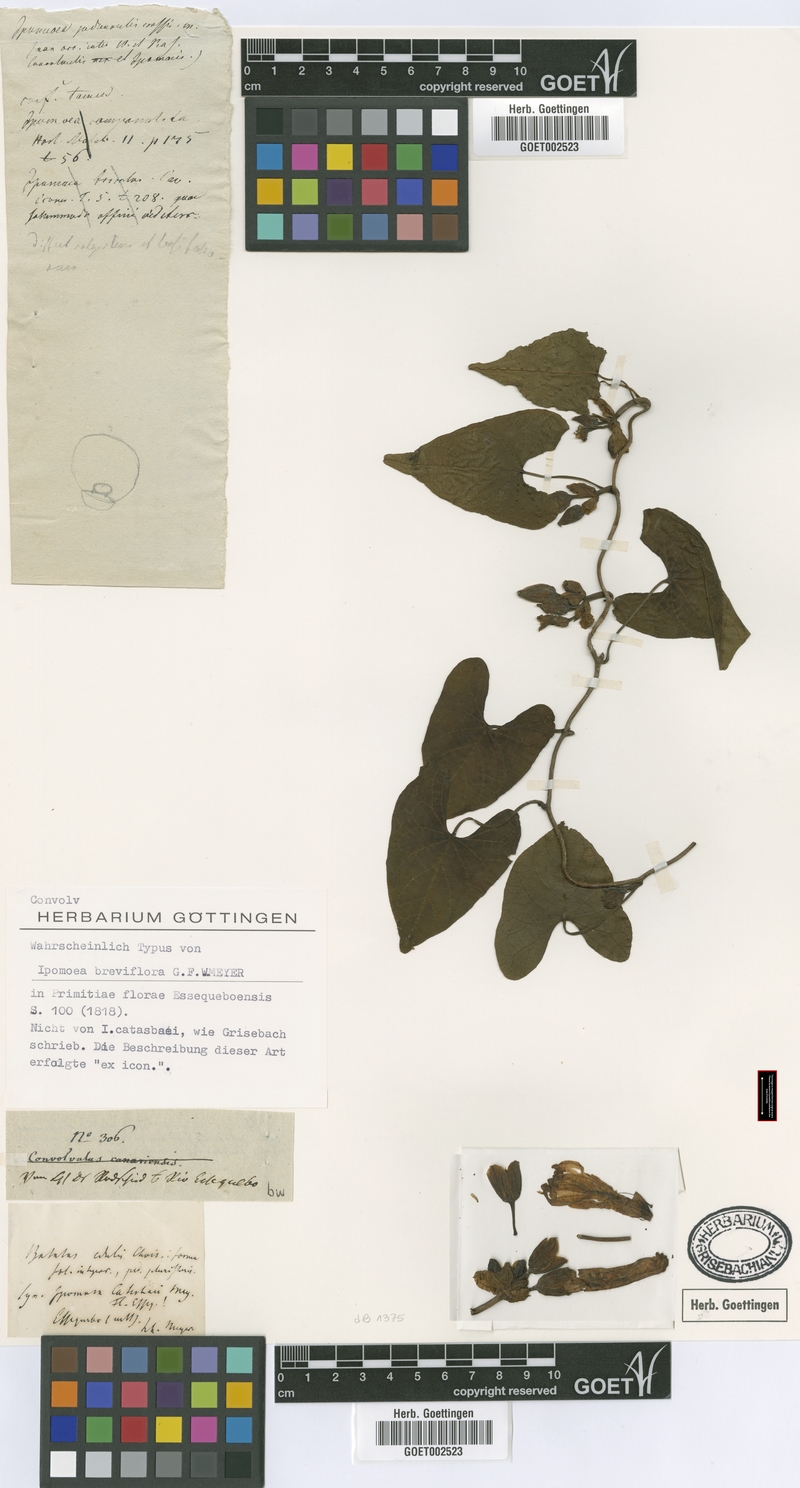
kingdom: Plantae
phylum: Tracheophyta
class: Magnoliopsida
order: Solanales
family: Convolvulaceae
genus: Ipomoea
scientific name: Ipomoea setifera
